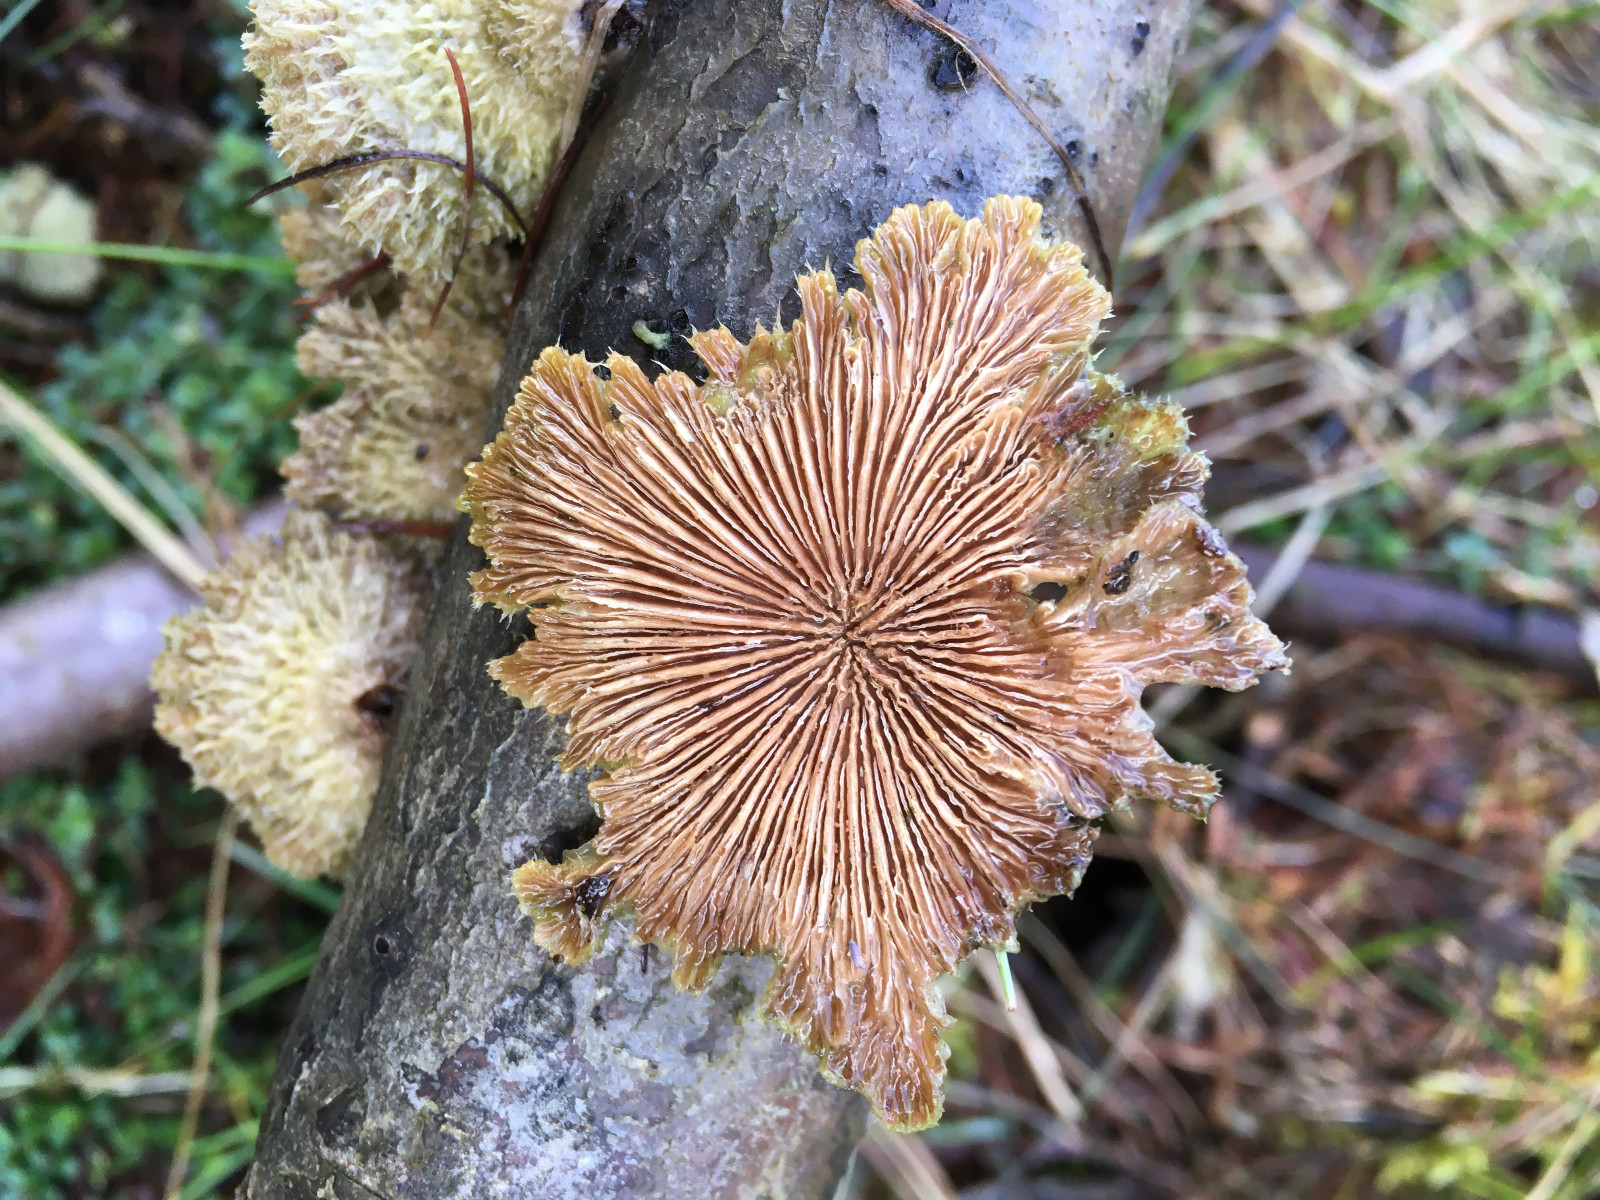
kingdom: Fungi
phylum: Basidiomycota
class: Agaricomycetes
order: Agaricales
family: Schizophyllaceae
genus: Schizophyllum
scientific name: Schizophyllum commune
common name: kløvblad
